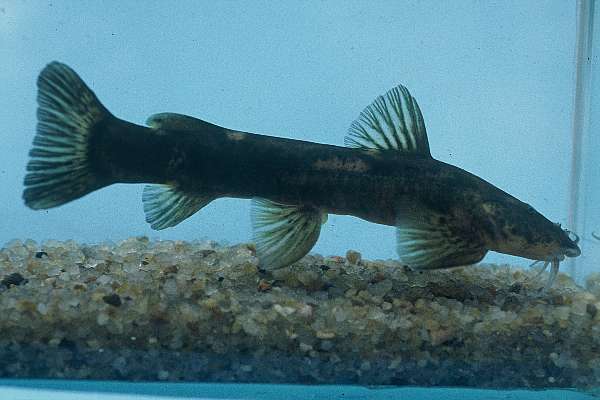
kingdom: Animalia
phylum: Chordata
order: Siluriformes
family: Amphiliidae
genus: Amphilius
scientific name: Amphilius uranoscopus
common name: Stargazer mountain catfish
